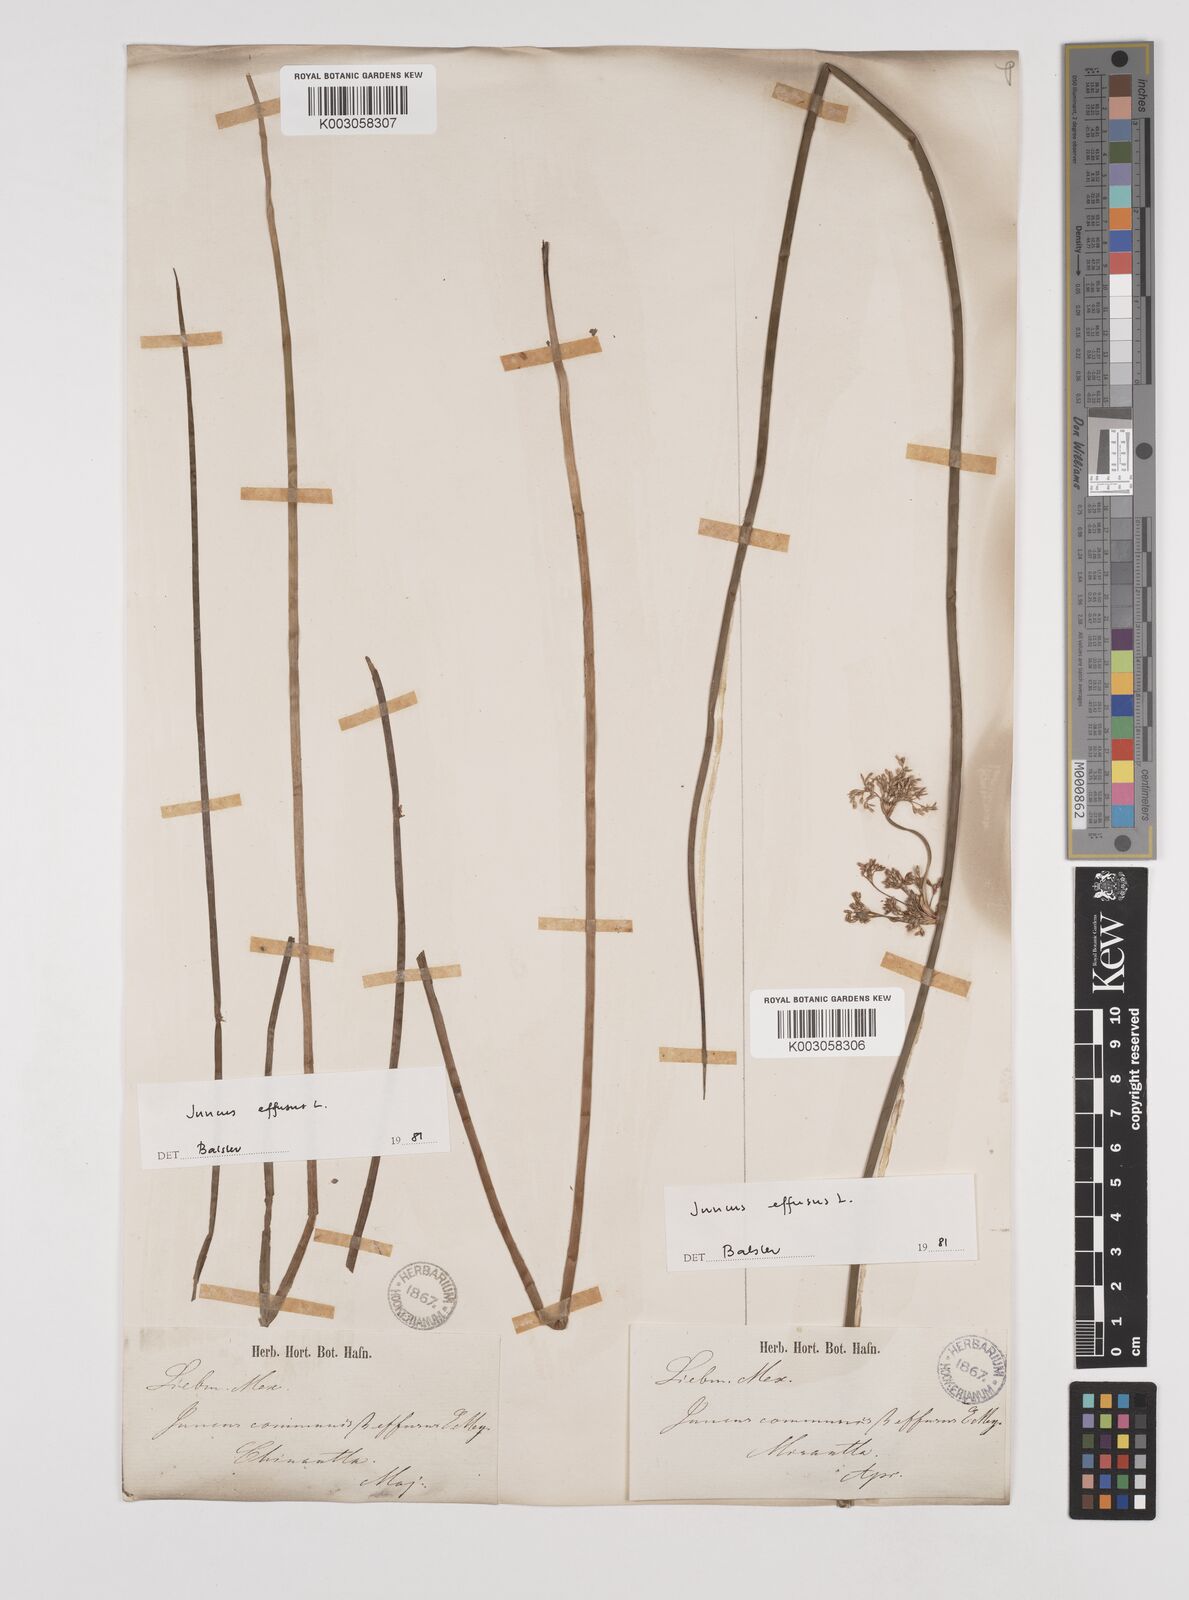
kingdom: Plantae
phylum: Tracheophyta
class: Liliopsida
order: Poales
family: Juncaceae
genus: Juncus
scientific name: Juncus effusus
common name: Soft rush
